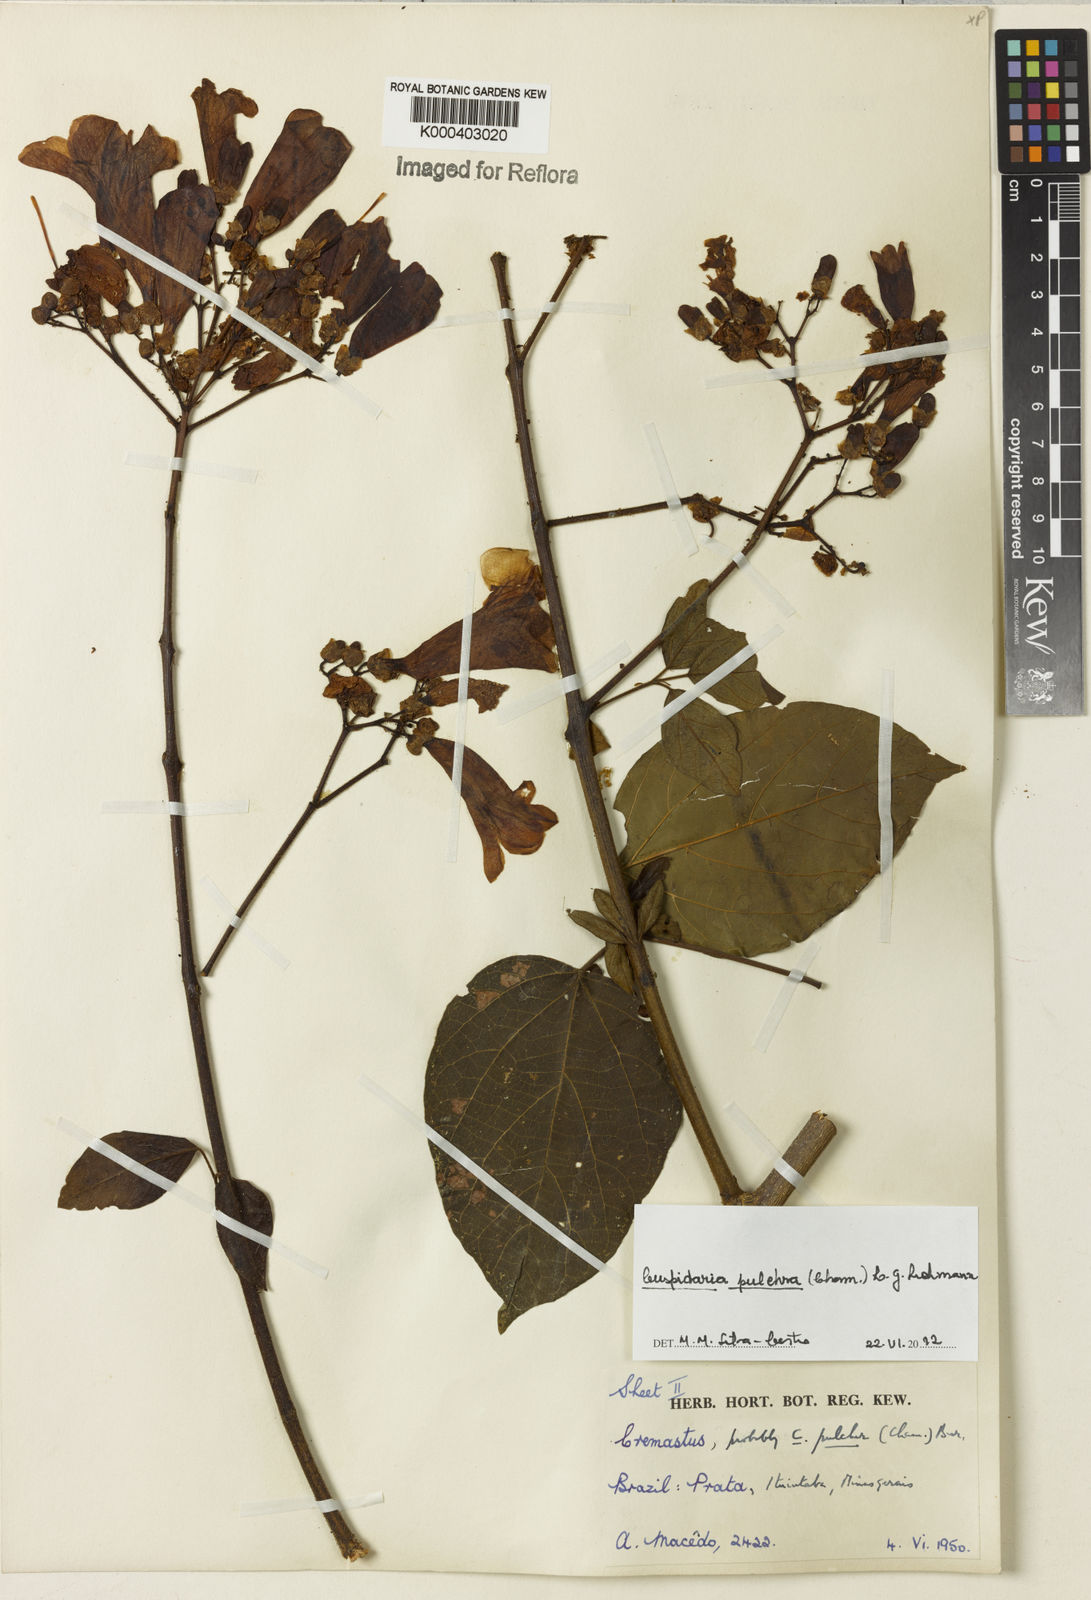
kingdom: Plantae
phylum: Tracheophyta
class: Magnoliopsida
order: Lamiales
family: Bignoniaceae
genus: Cuspidaria
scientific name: Cuspidaria pulchra
